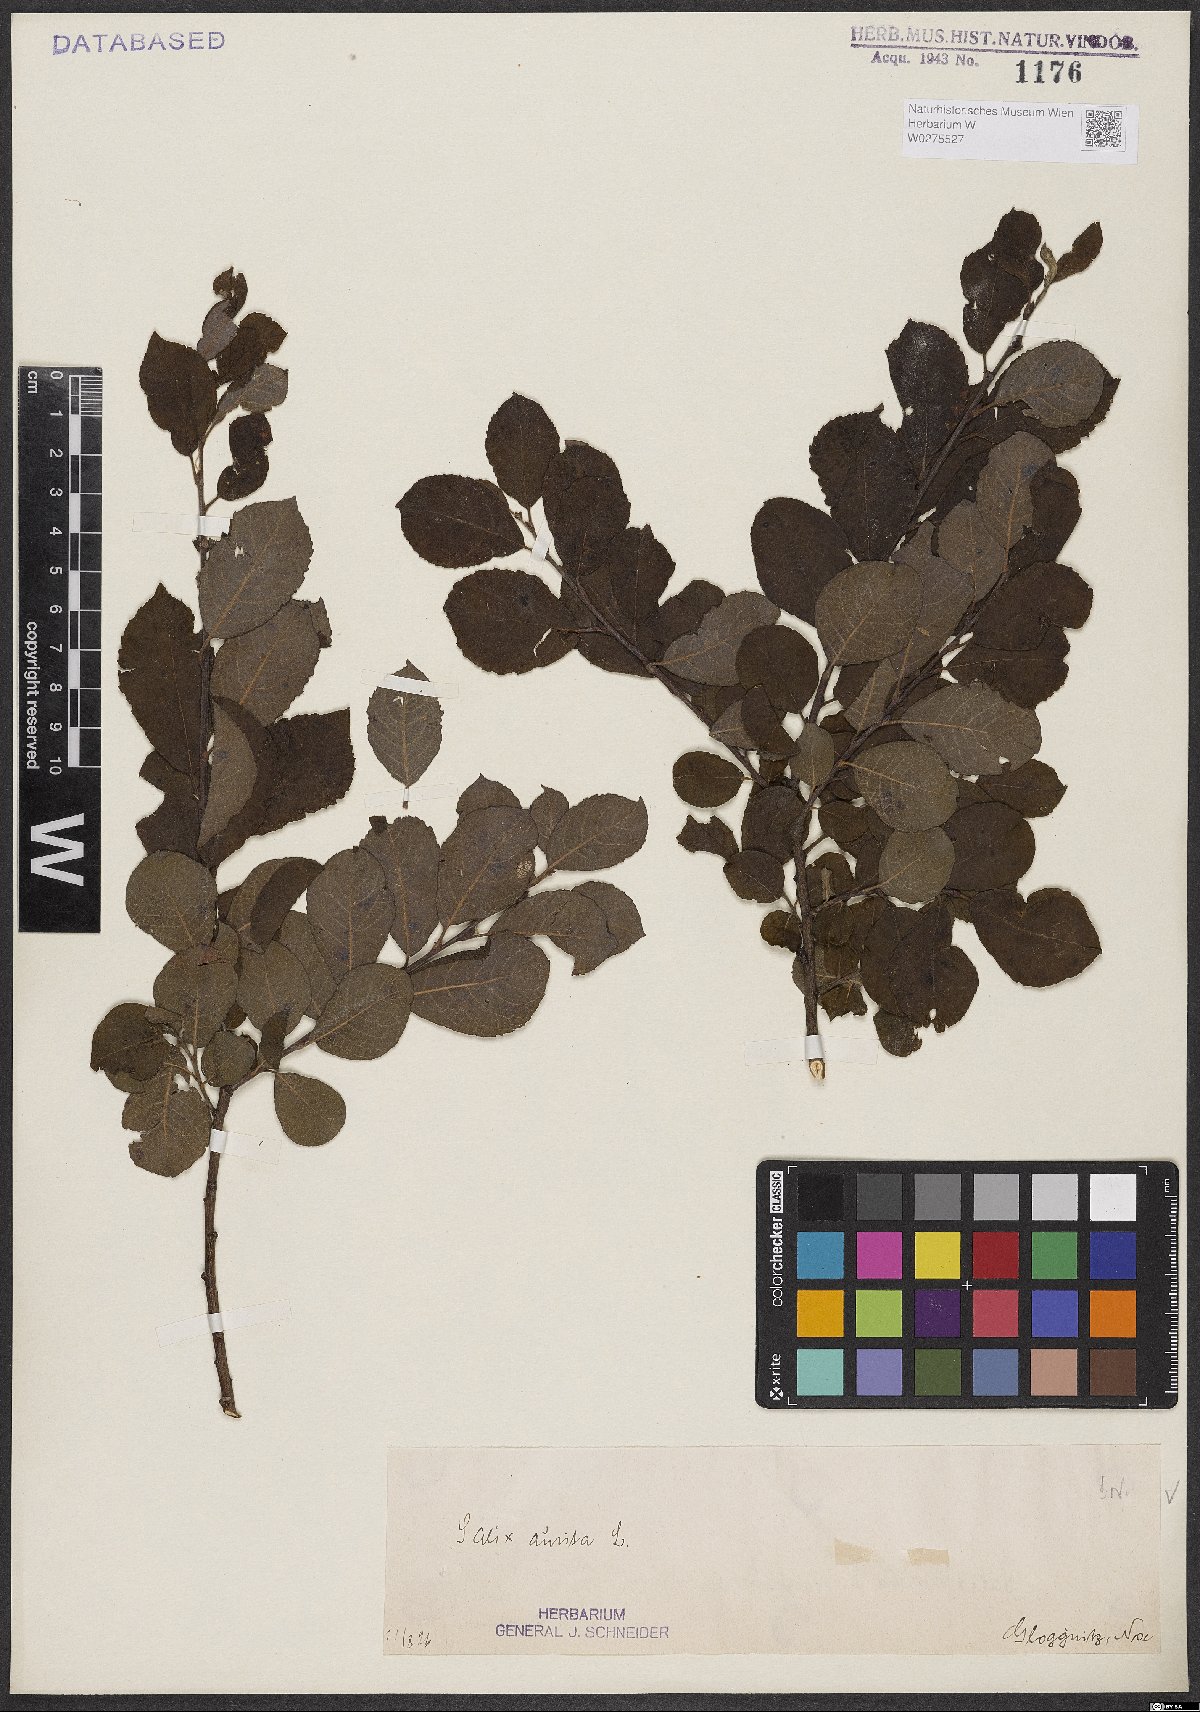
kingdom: Plantae
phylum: Tracheophyta
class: Magnoliopsida
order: Malpighiales
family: Salicaceae
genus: Salix
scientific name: Salix aurita
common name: Eared willow
